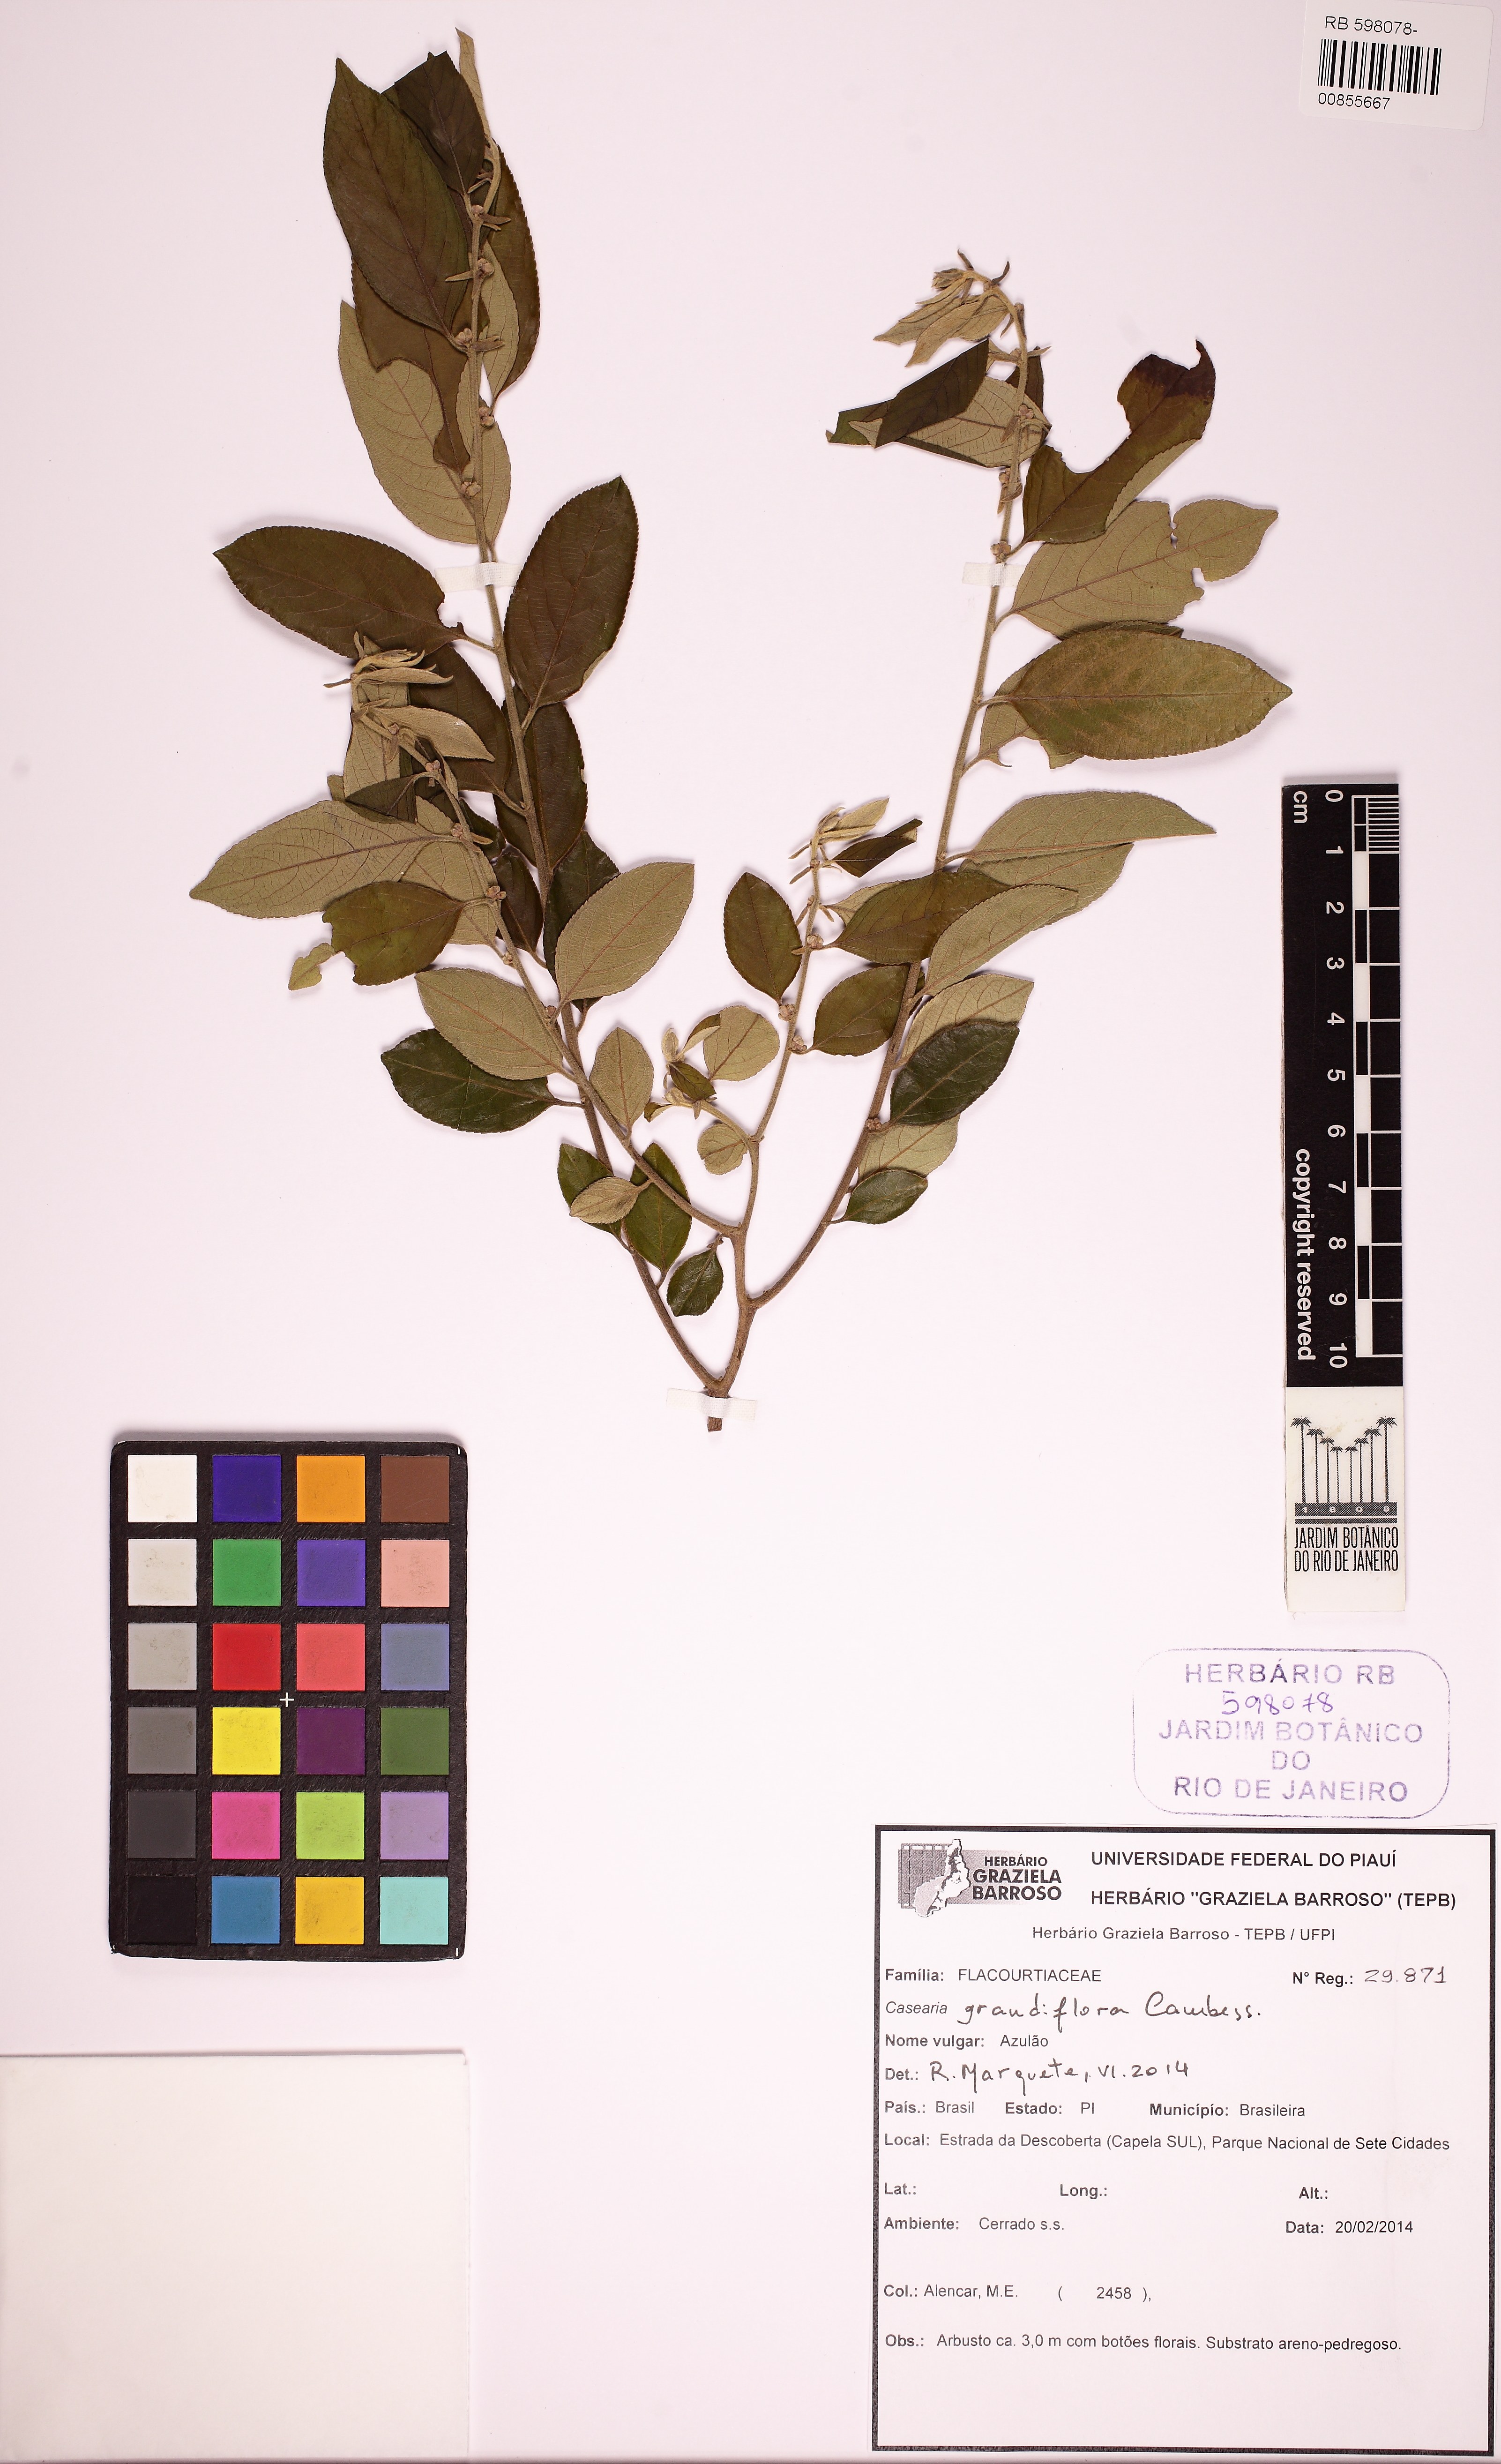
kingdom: Plantae
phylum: Tracheophyta
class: Magnoliopsida
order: Malpighiales
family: Salicaceae
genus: Casearia
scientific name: Casearia grandiflora
